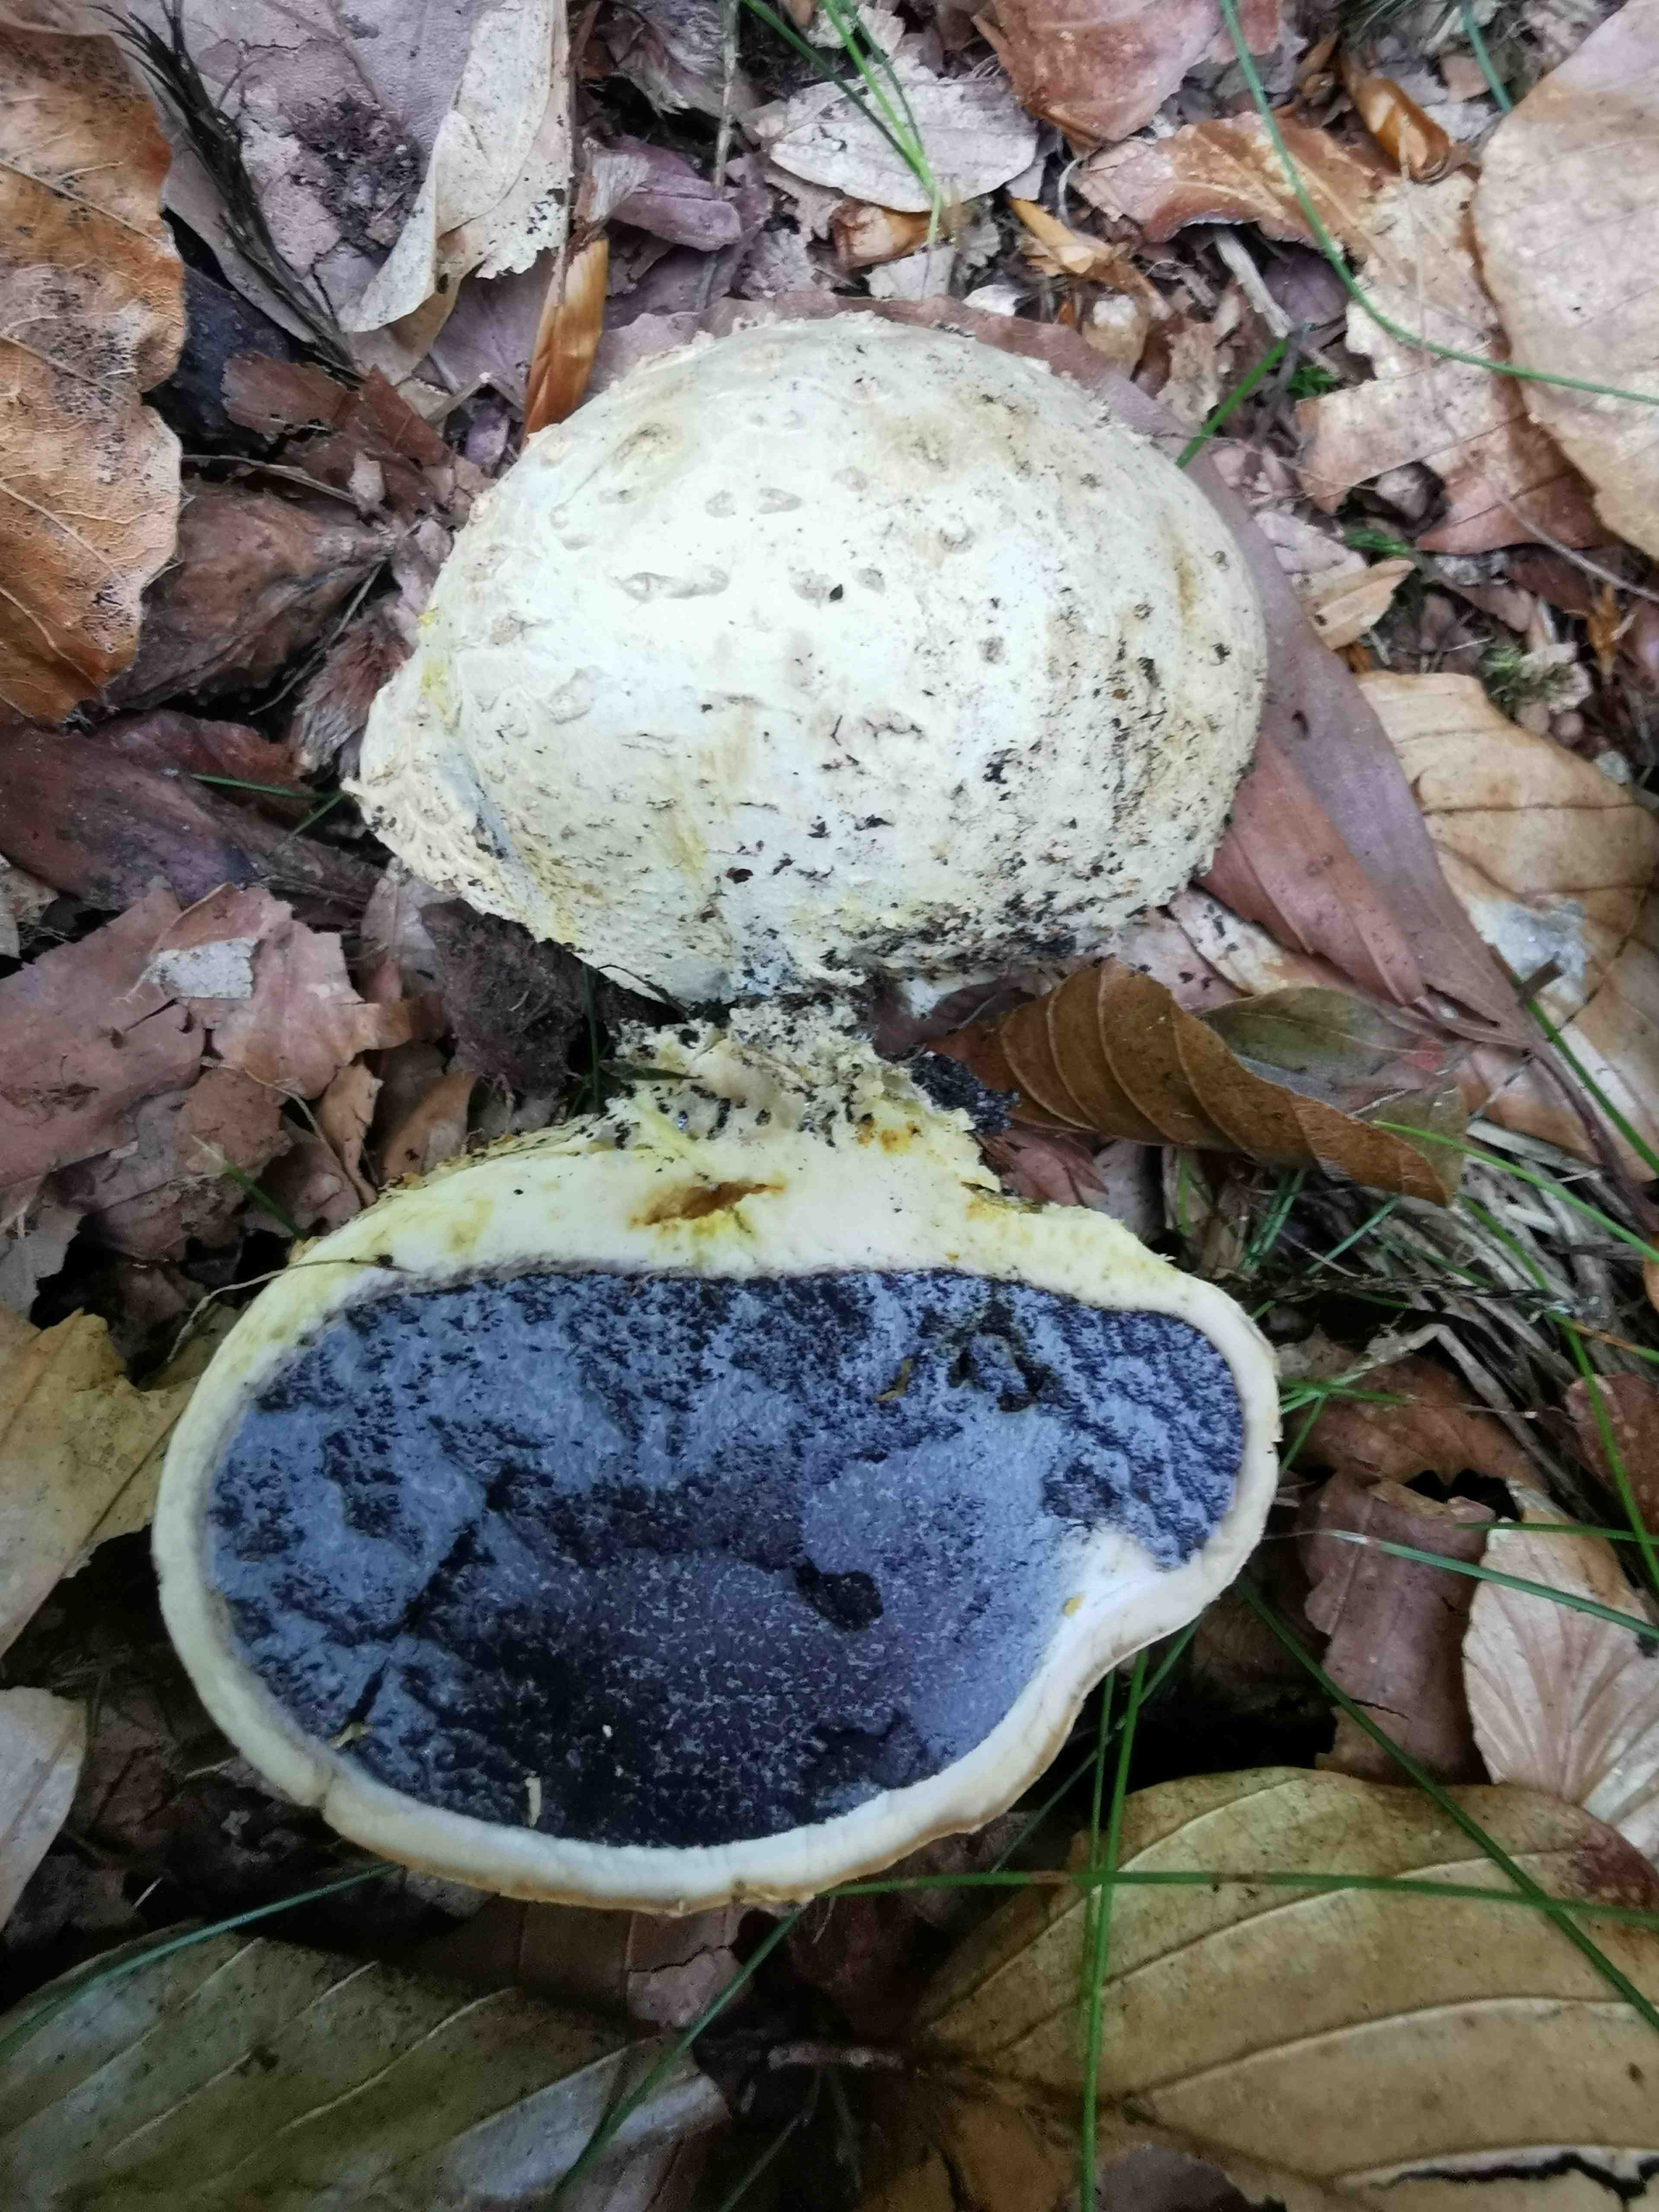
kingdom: Fungi
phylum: Basidiomycota
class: Agaricomycetes
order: Boletales
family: Sclerodermataceae
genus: Scleroderma
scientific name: Scleroderma citrinum
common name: almindelig bruskbold
